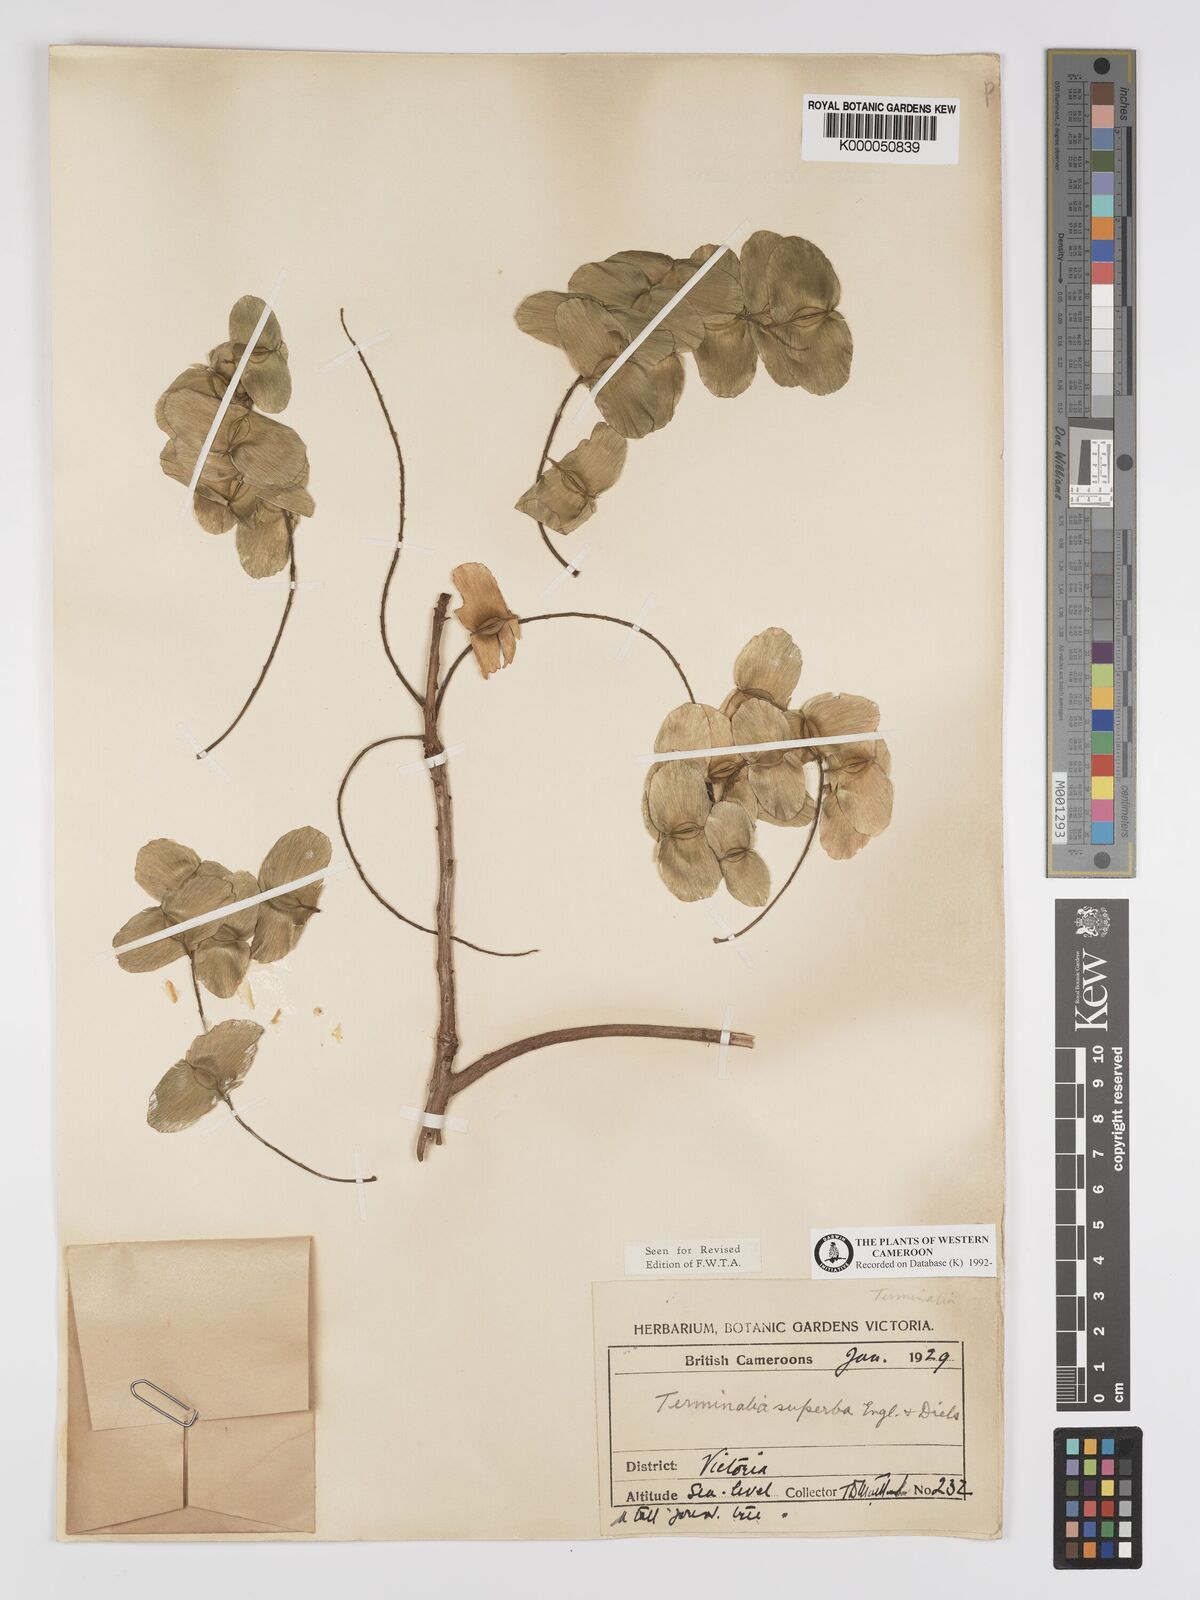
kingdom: Plantae
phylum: Tracheophyta
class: Magnoliopsida
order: Myrtales
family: Combretaceae
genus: Terminalia
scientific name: Terminalia superba
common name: White afara
